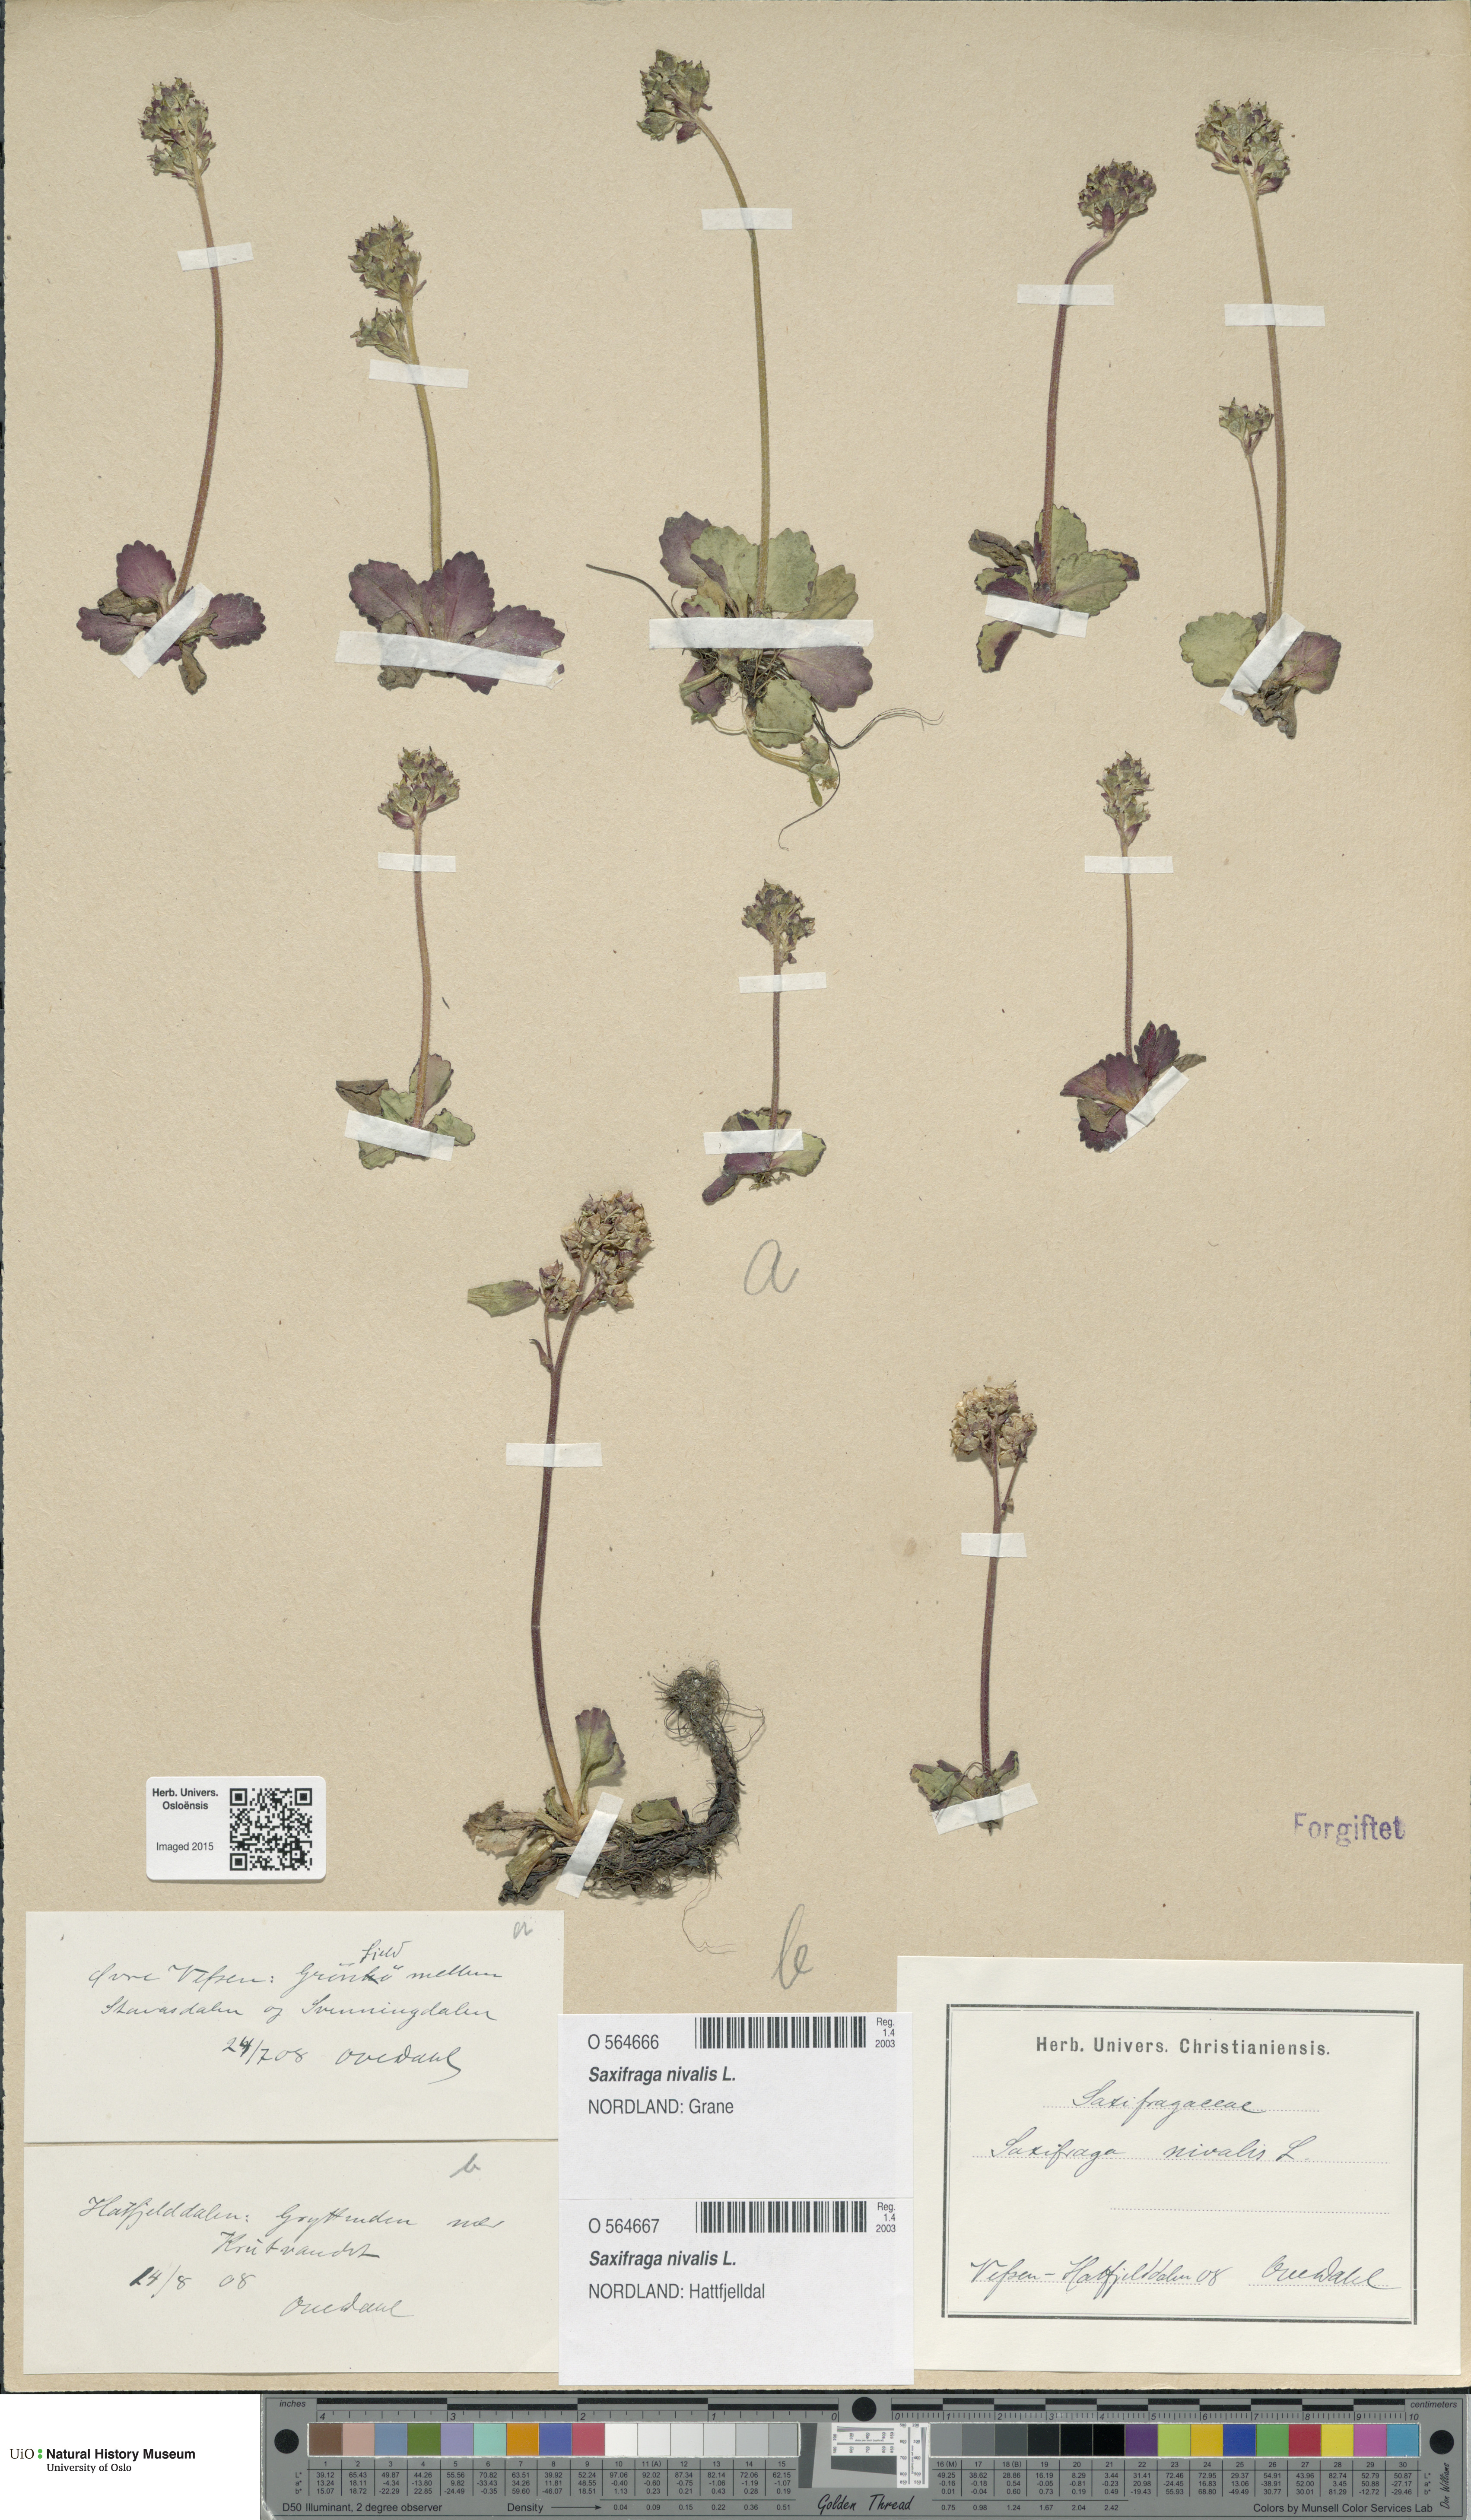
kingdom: Plantae
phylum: Tracheophyta
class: Magnoliopsida
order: Saxifragales
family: Saxifragaceae
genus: Micranthes
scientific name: Micranthes nivalis
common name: Alpine saxifrage
